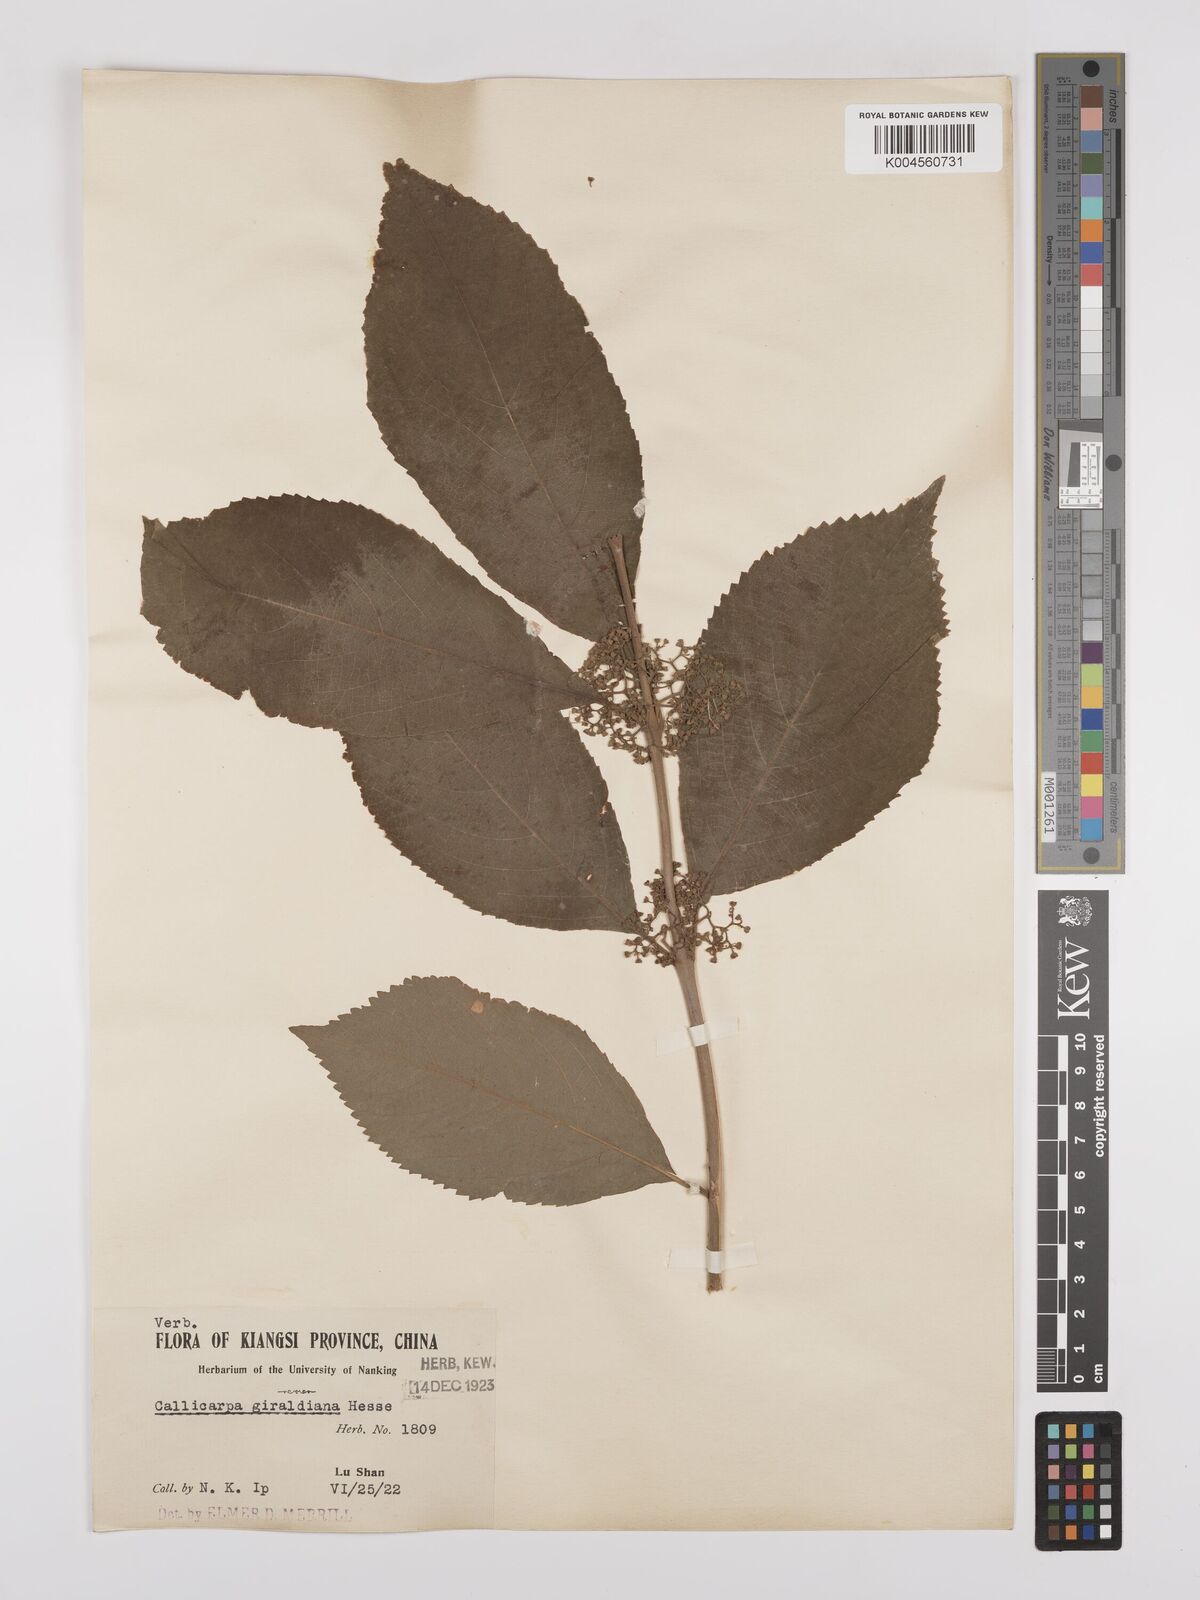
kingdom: Plantae
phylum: Tracheophyta
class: Magnoliopsida
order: Lamiales
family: Lamiaceae
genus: Callicarpa
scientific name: Callicarpa japonica
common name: Japanese beauty-berry
